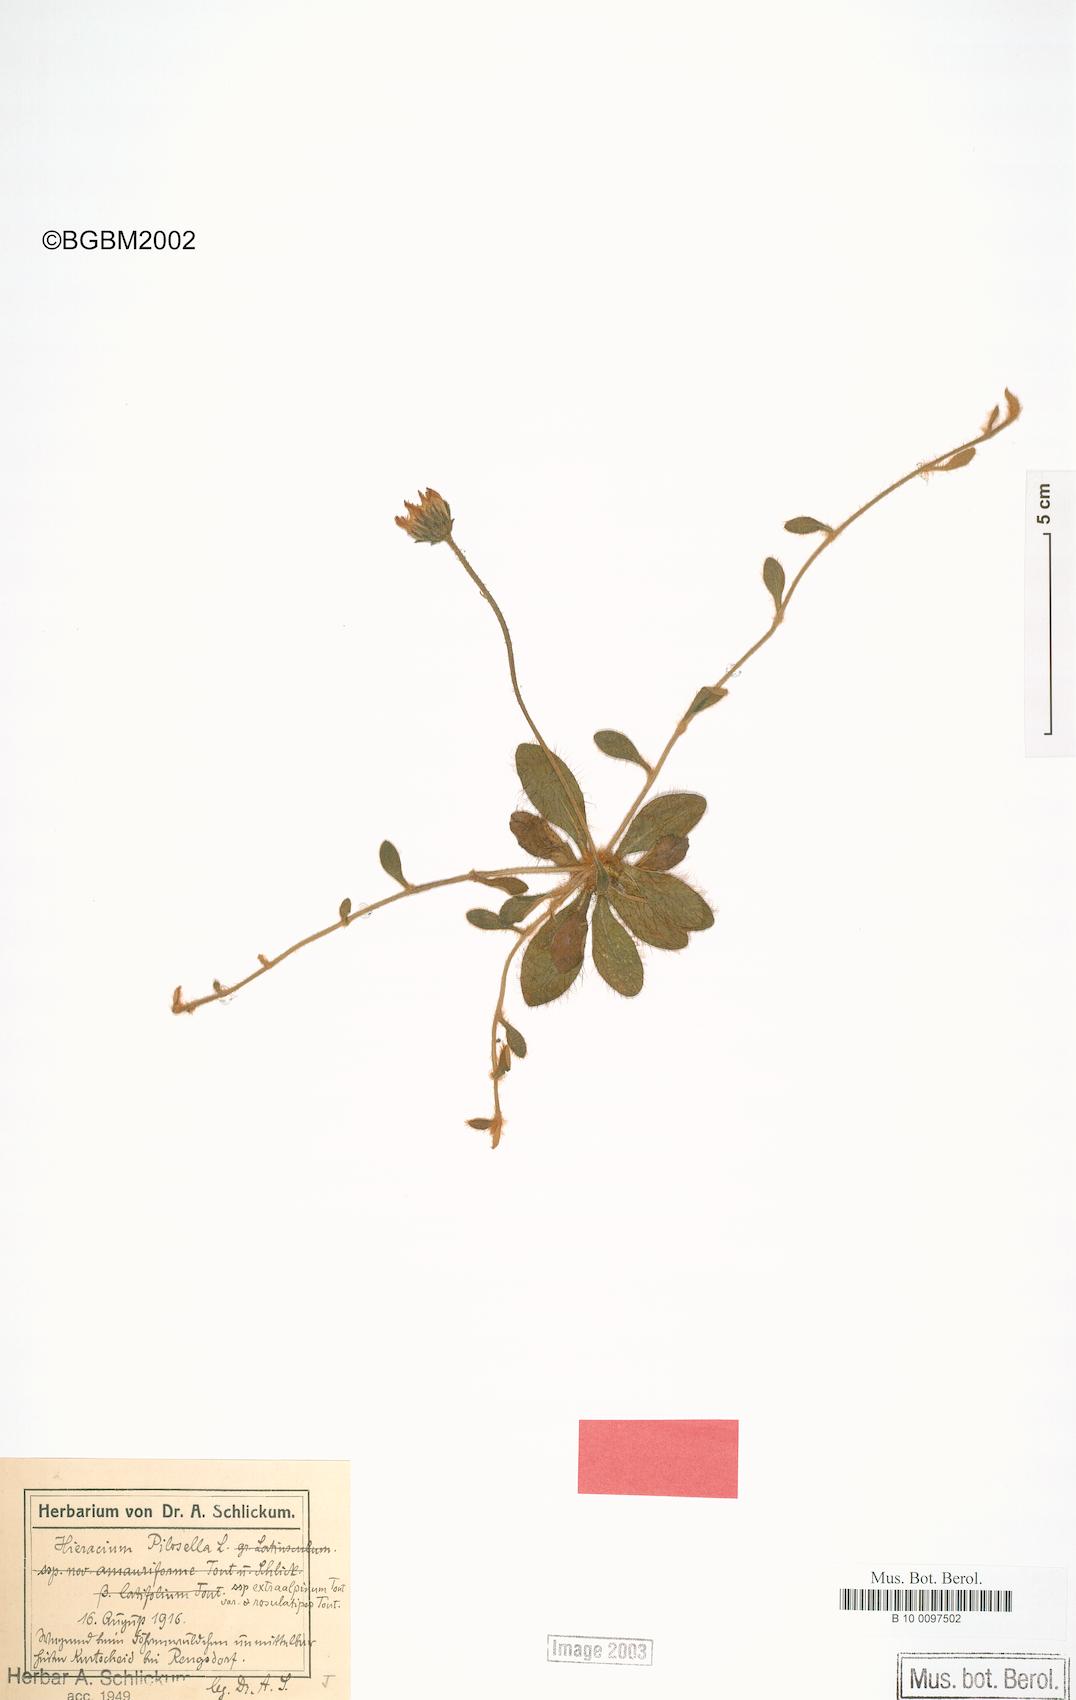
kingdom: Plantae
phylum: Tracheophyta
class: Magnoliopsida
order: Asterales
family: Asteraceae
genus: Pilosella
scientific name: Pilosella officinarum
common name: Mouse-ear hawkweed
